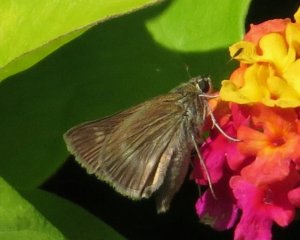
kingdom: Animalia
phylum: Arthropoda
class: Insecta
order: Lepidoptera
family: Hesperiidae
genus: Polites
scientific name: Polites egeremet
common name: Northern Broken-Dash
